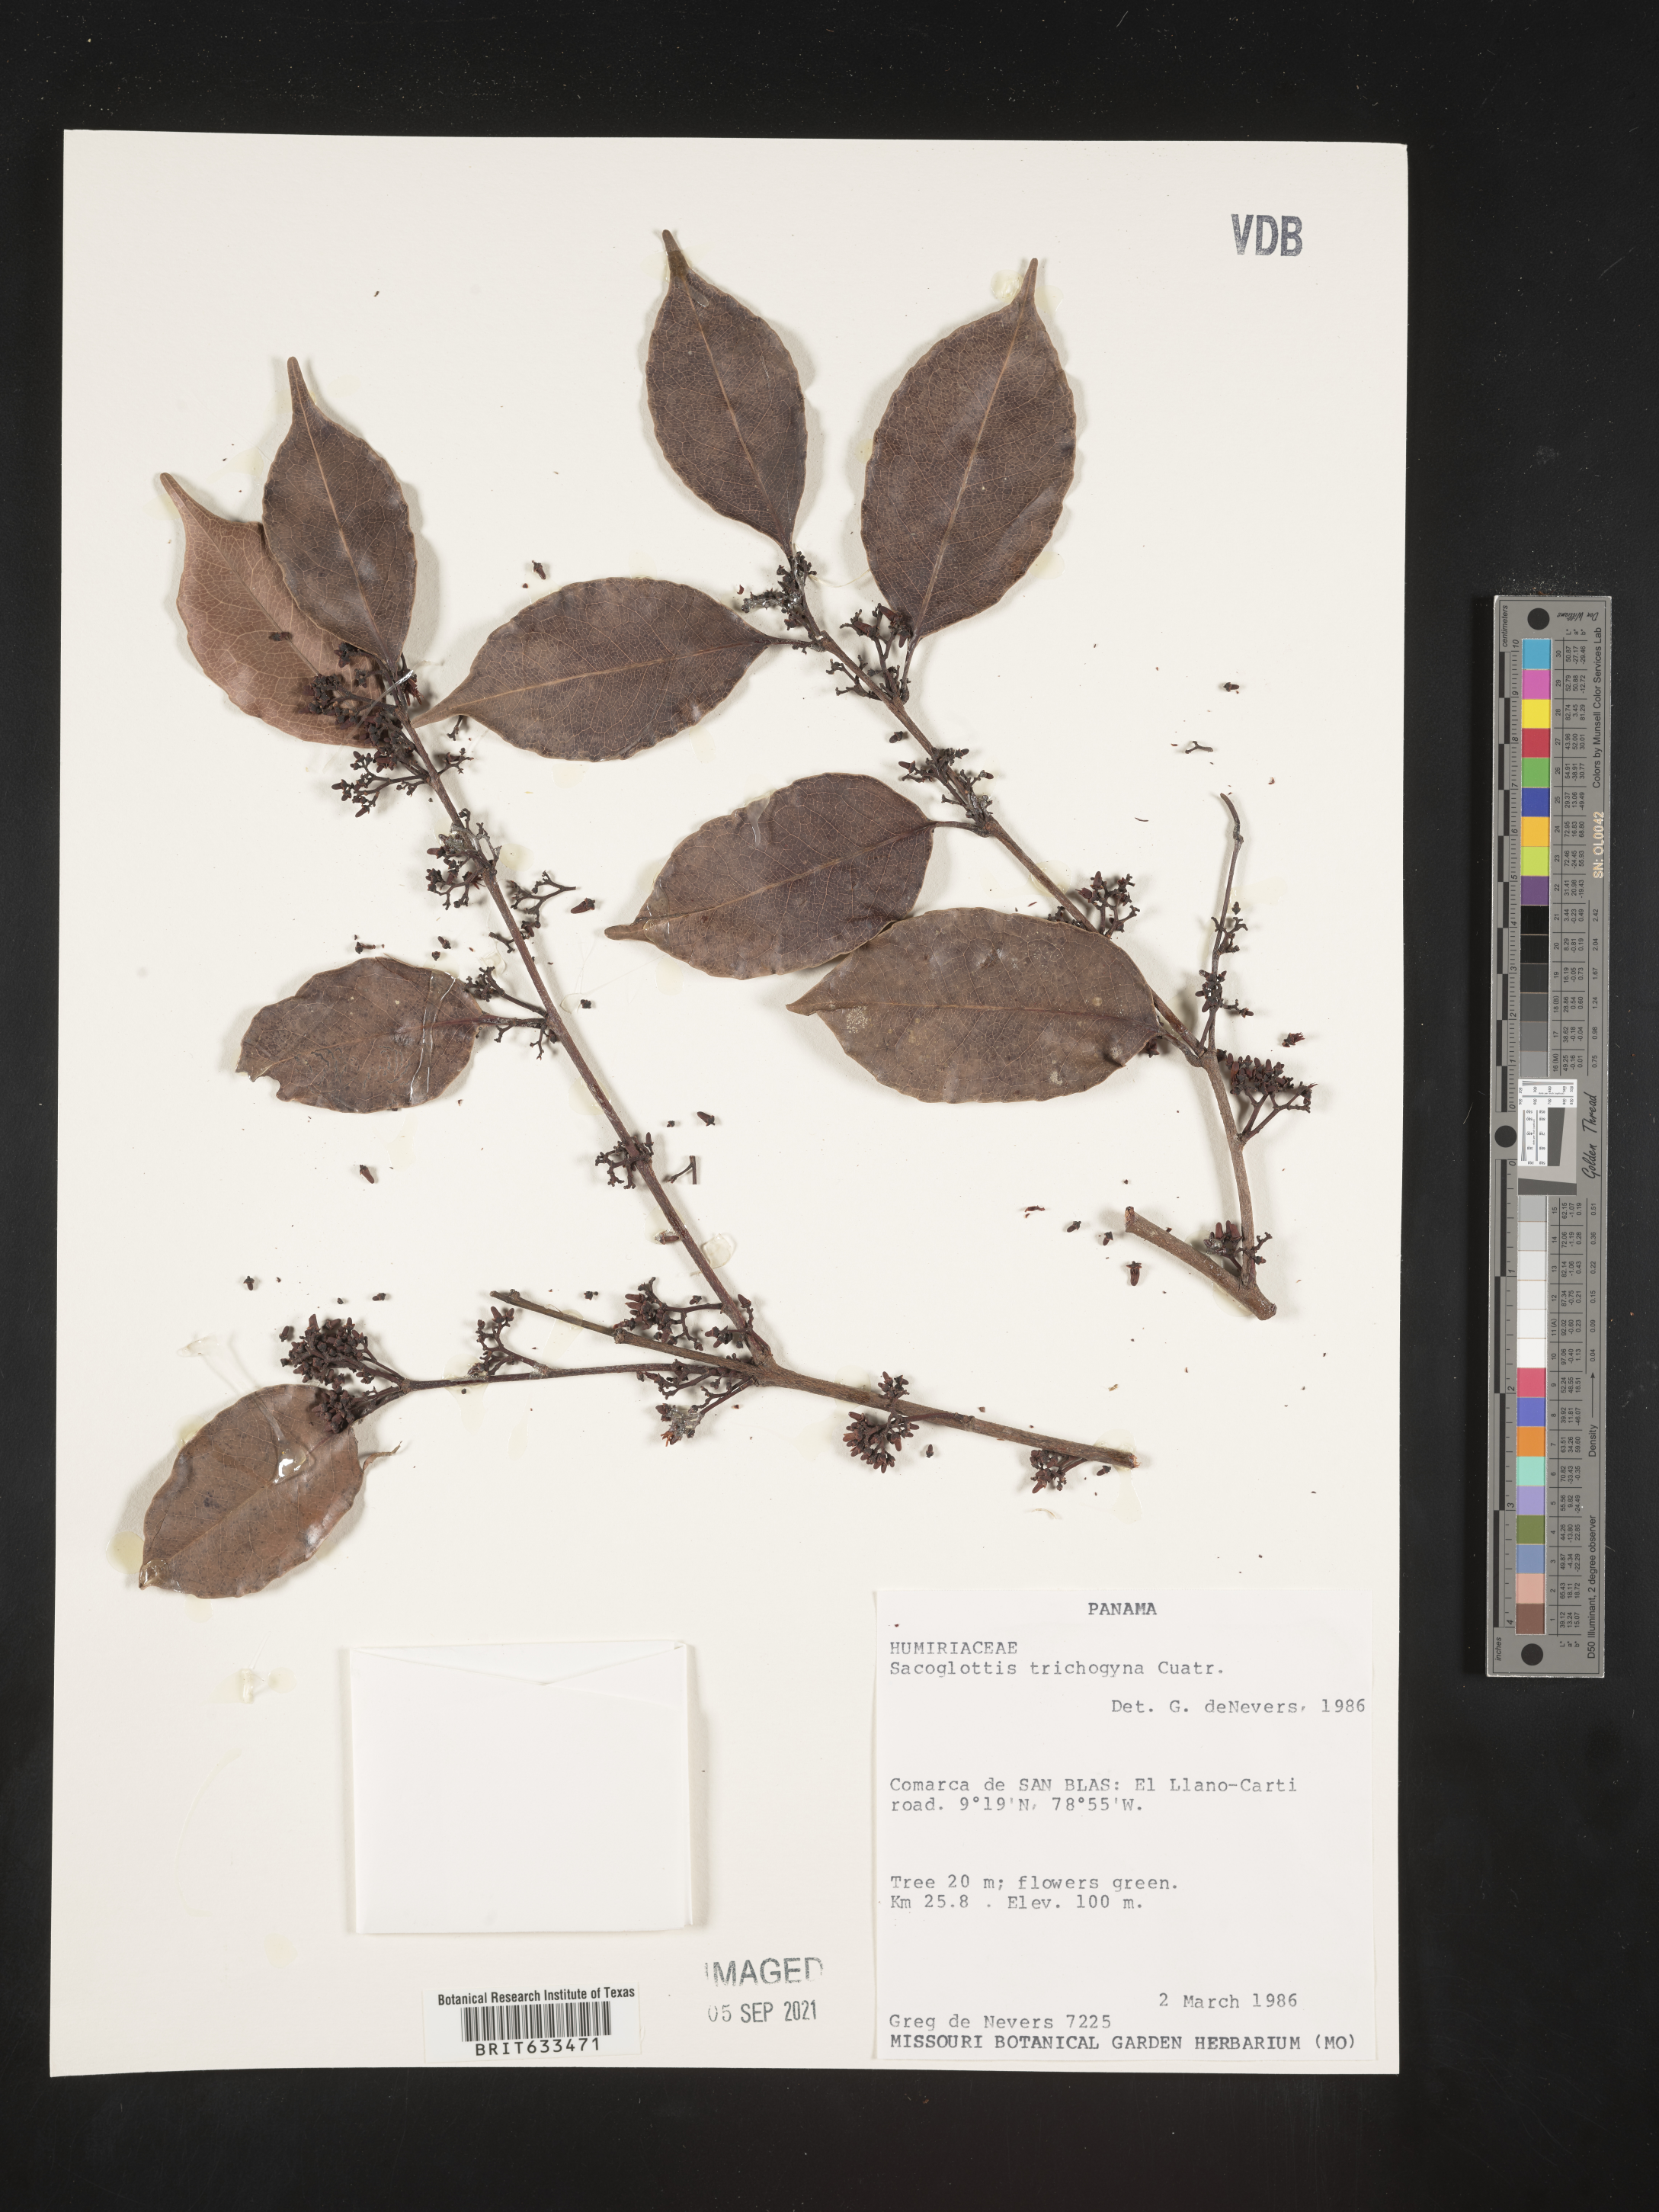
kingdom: Plantae
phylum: Tracheophyta
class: Magnoliopsida
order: Malpighiales
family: Humiriaceae
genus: Sacoglottis
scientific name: Sacoglottis
